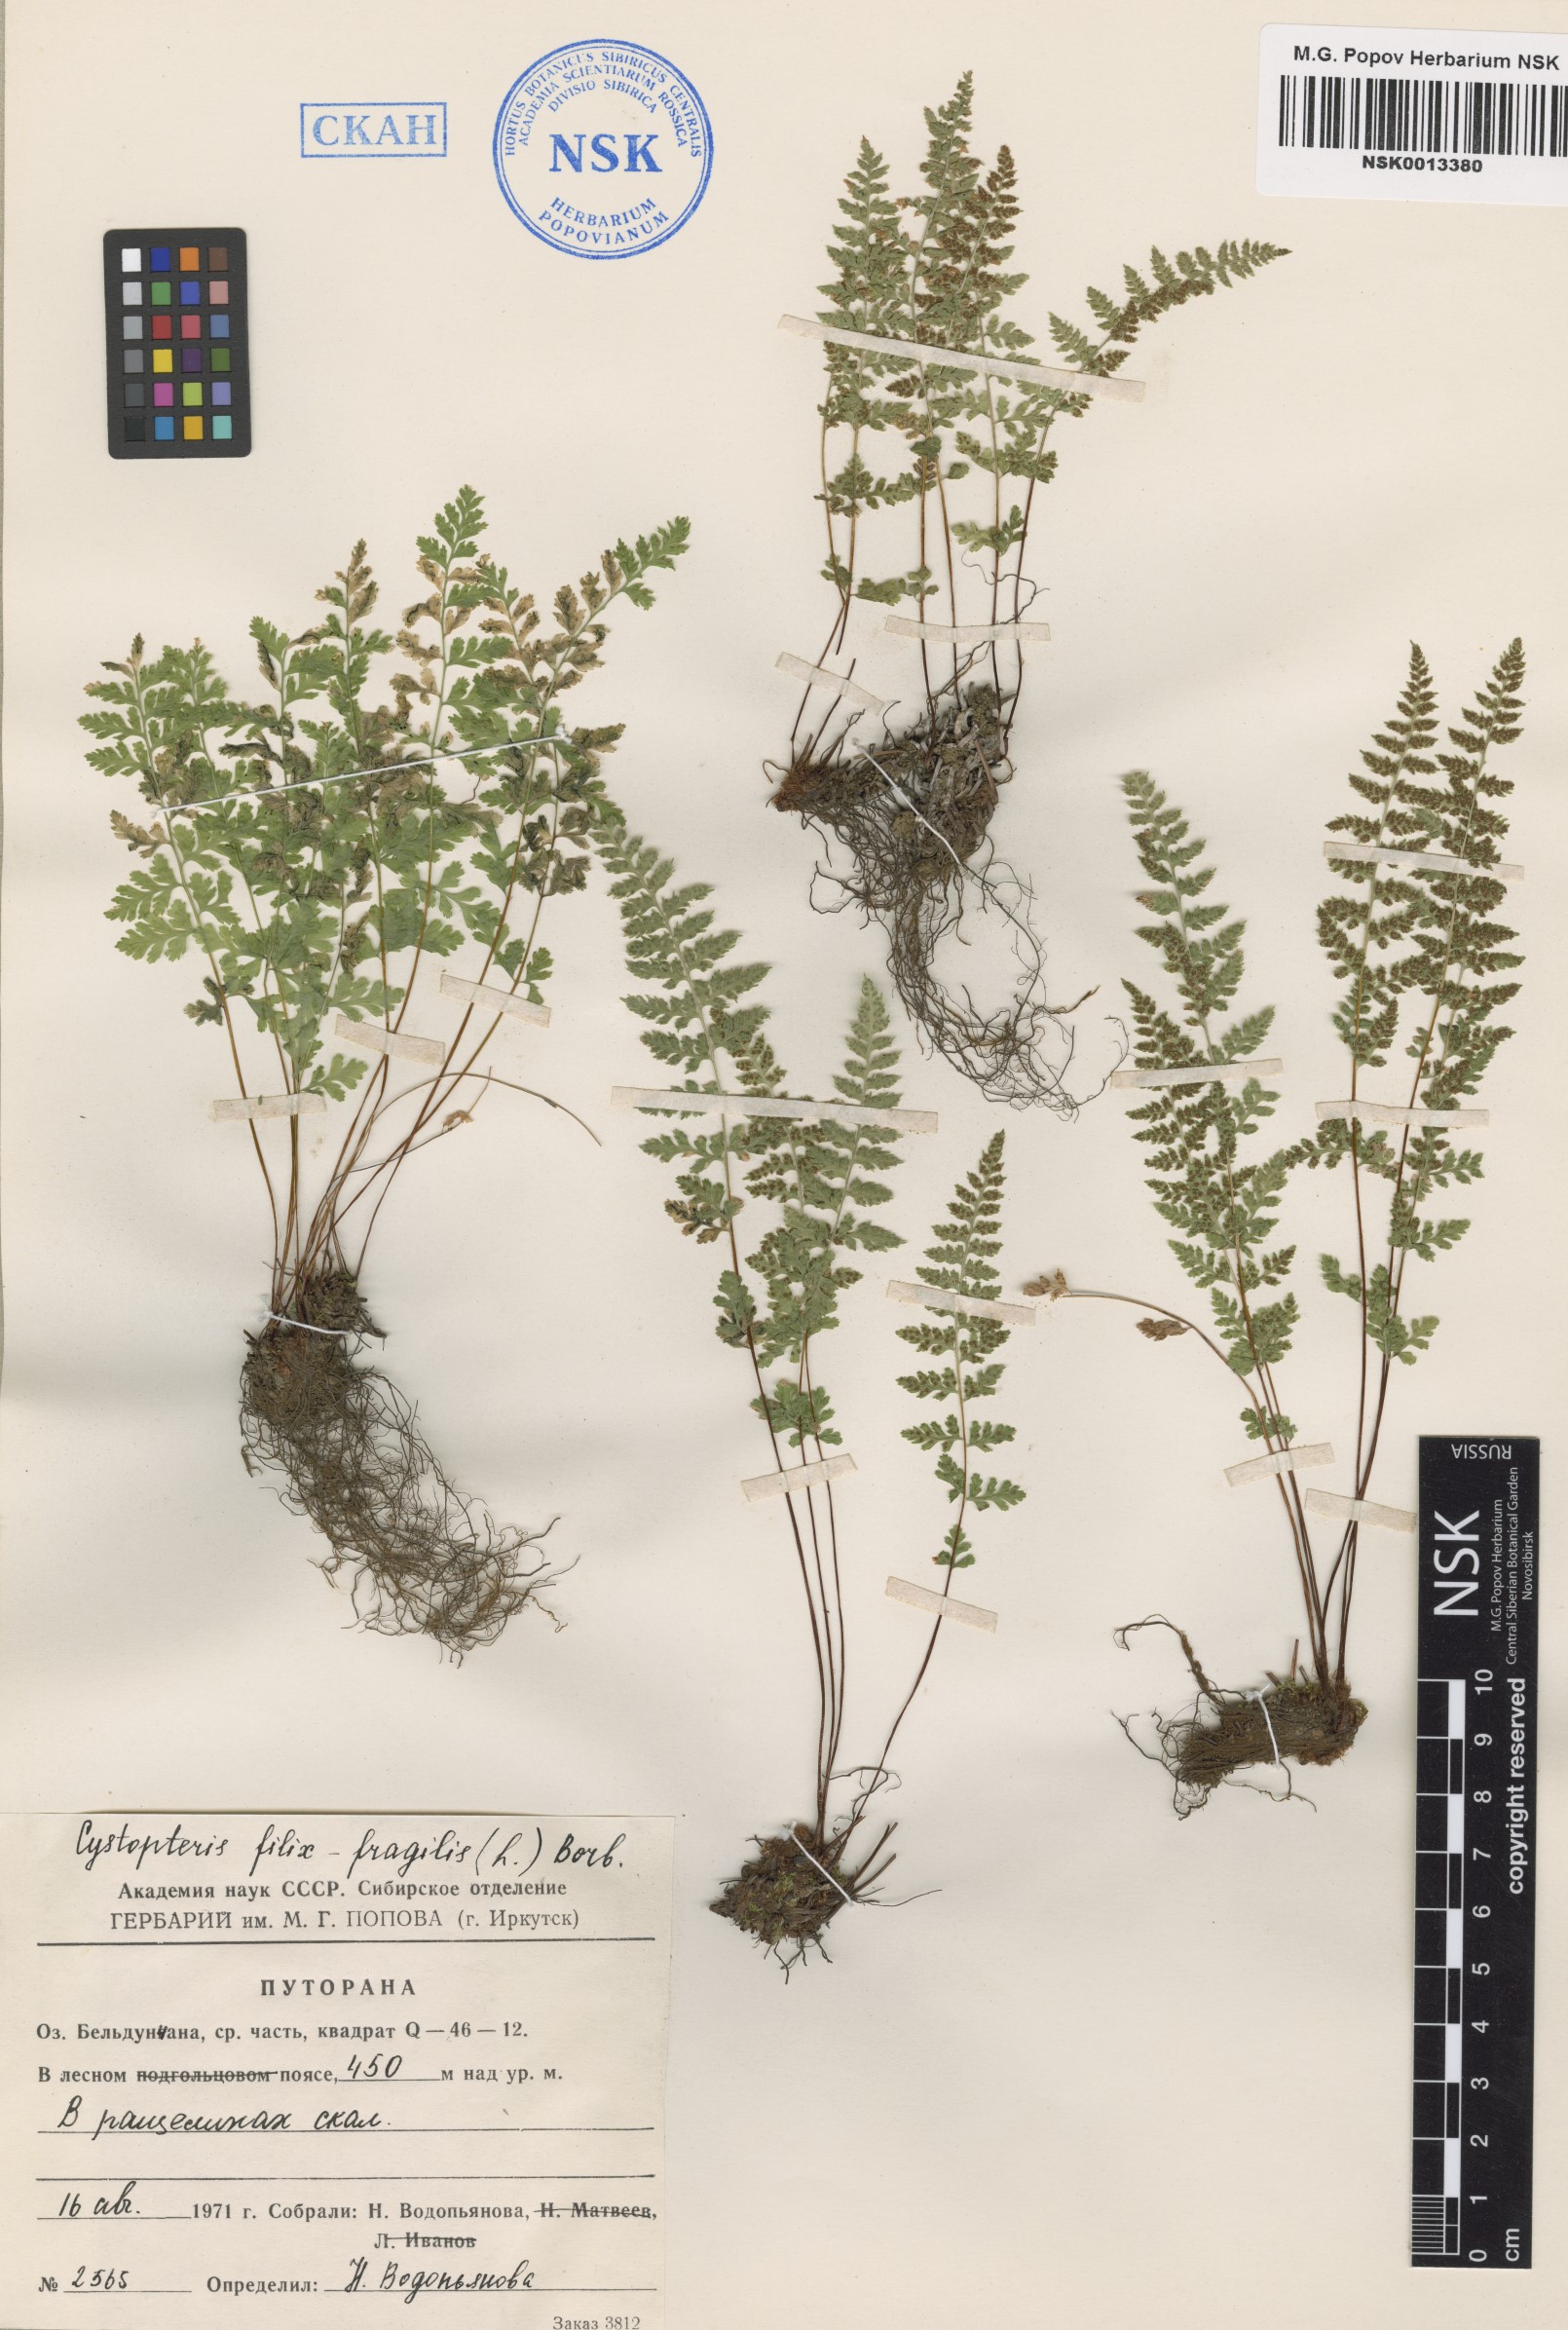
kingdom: Plantae
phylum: Tracheophyta
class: Polypodiopsida
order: Polypodiales
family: Cystopteridaceae
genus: Cystopteris
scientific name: Cystopteris fragilis
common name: Brittle bladder fern
